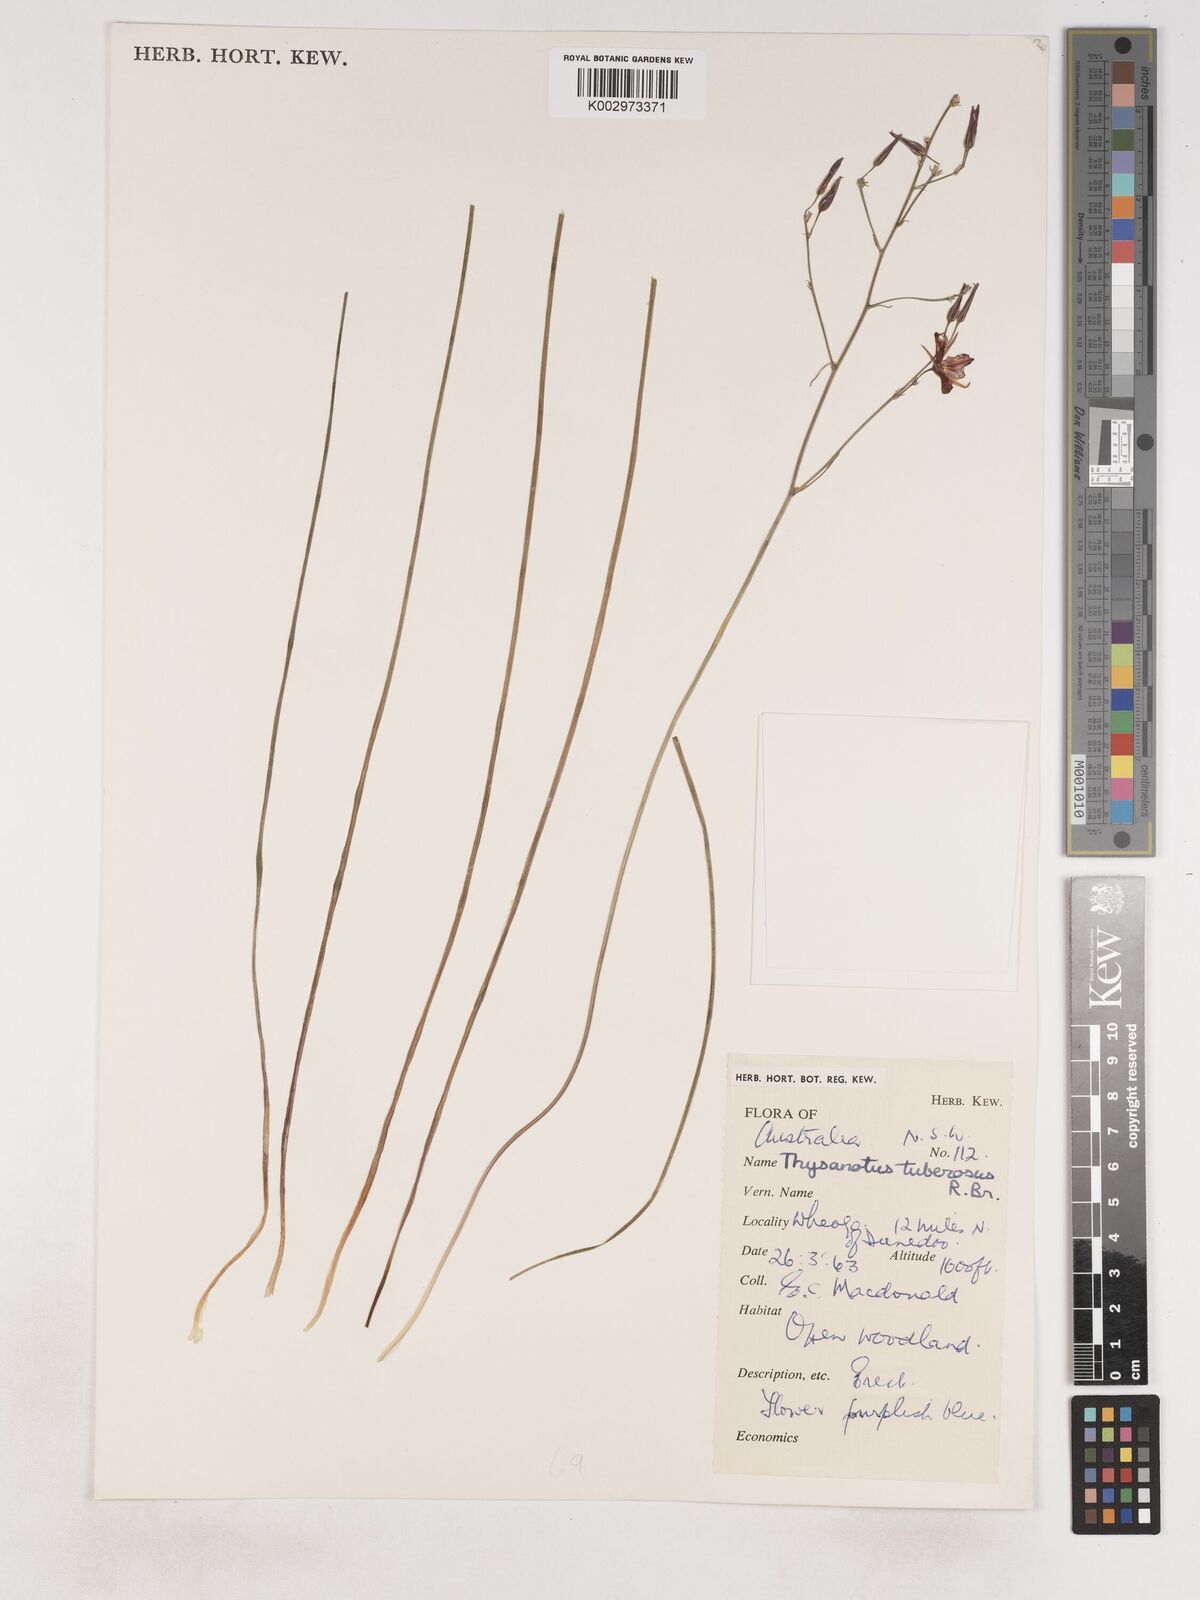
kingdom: Plantae
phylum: Tracheophyta
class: Liliopsida
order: Asparagales
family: Asparagaceae
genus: Thysanotus
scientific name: Thysanotus tuberosus
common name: Common fringed-lily
